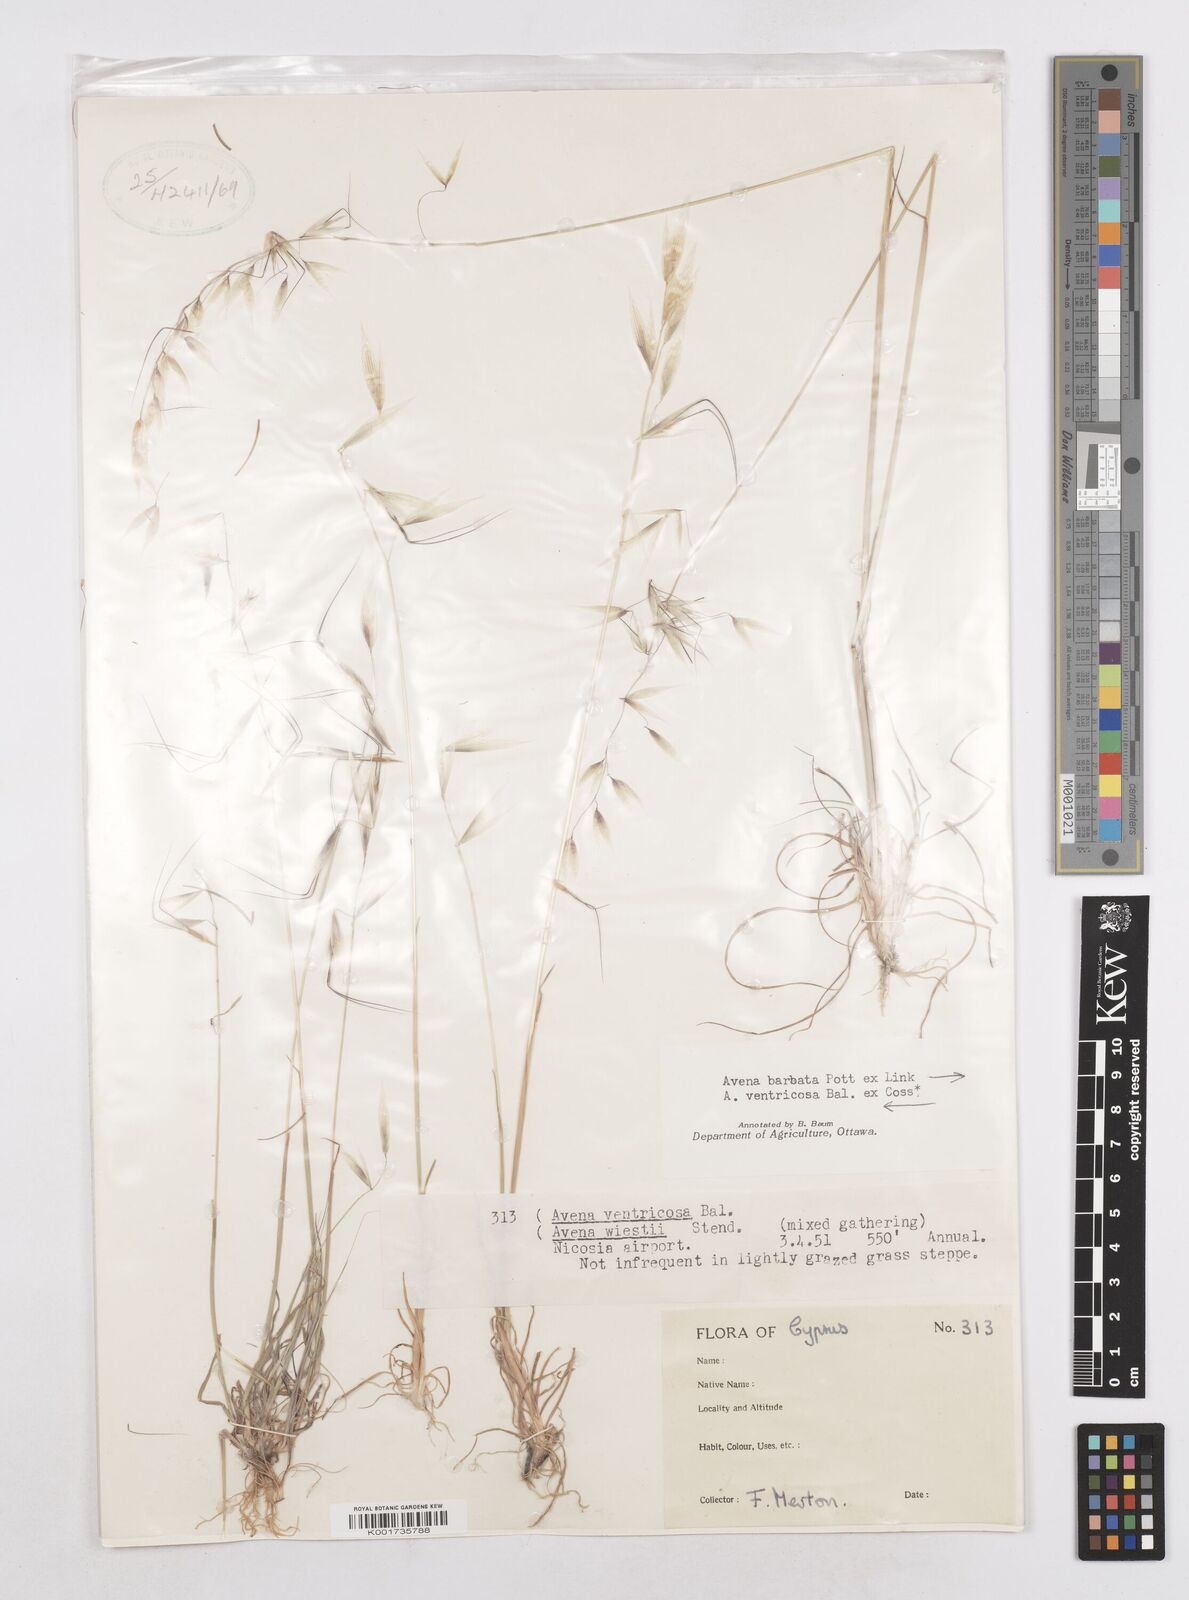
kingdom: Plantae
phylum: Tracheophyta
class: Liliopsida
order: Poales
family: Poaceae
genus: Avena
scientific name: Avena ventricosa
